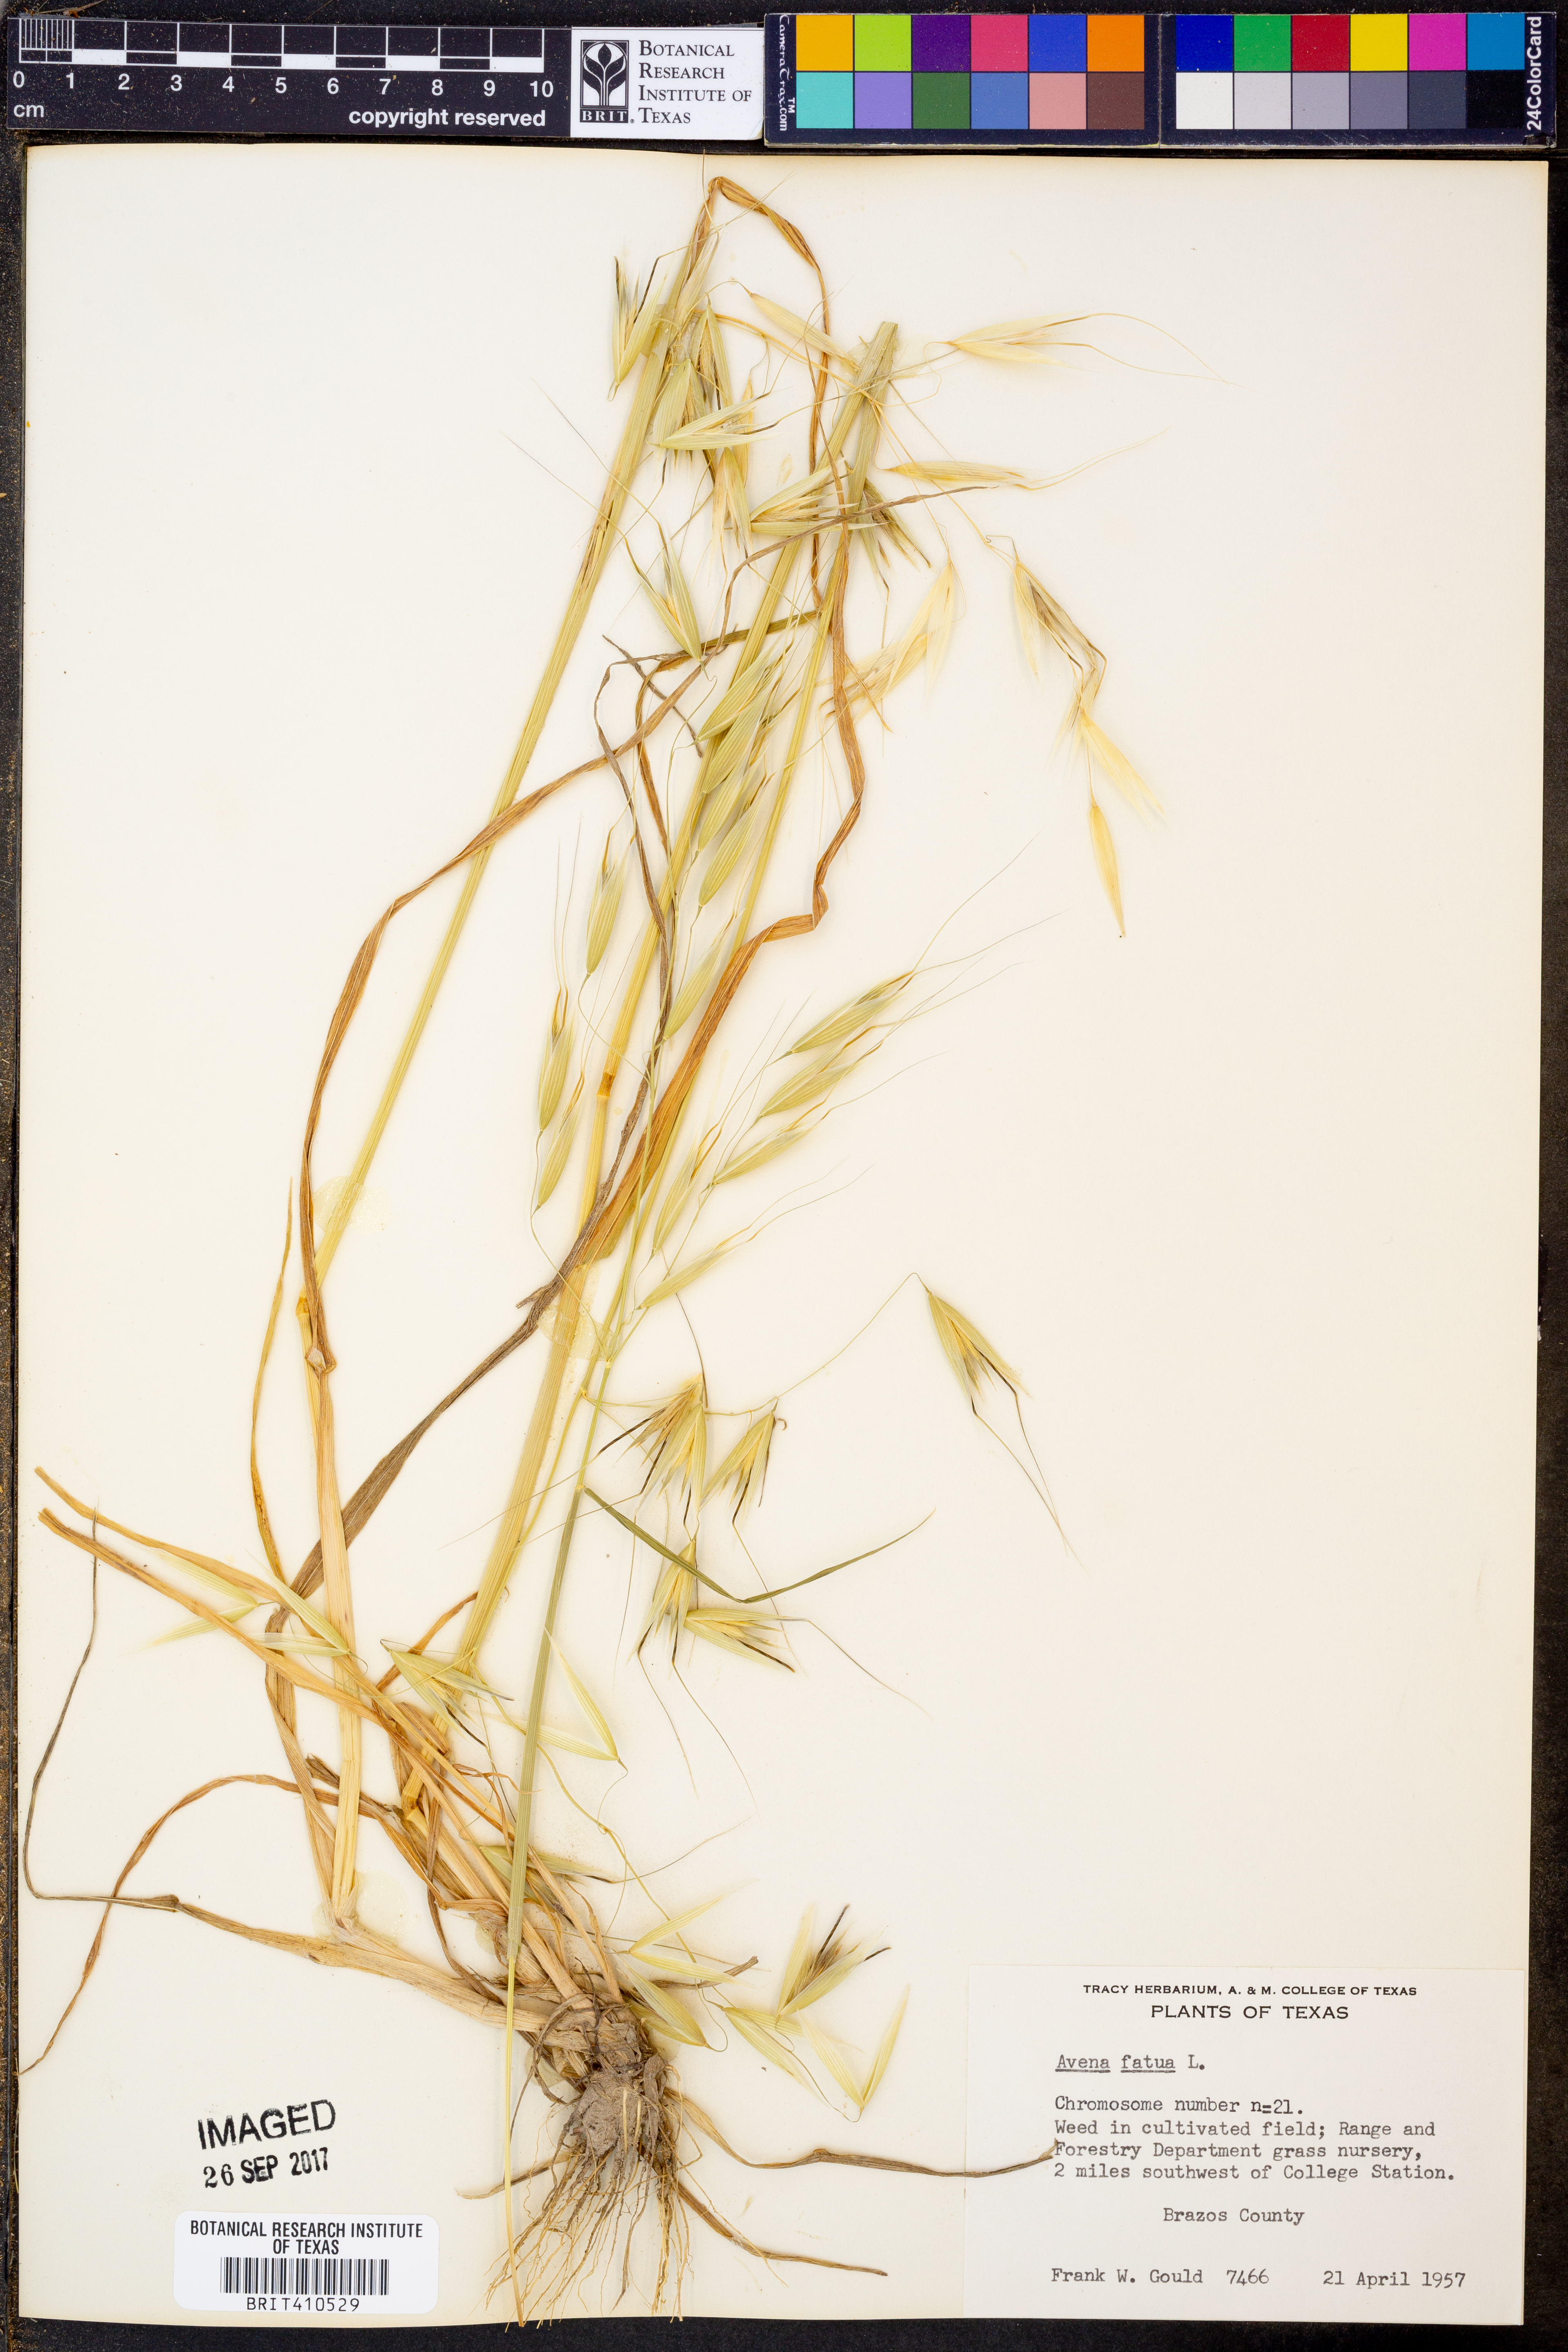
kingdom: Plantae
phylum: Tracheophyta
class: Liliopsida
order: Poales
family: Poaceae
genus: Avena
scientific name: Avena fatua
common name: Wild oat
